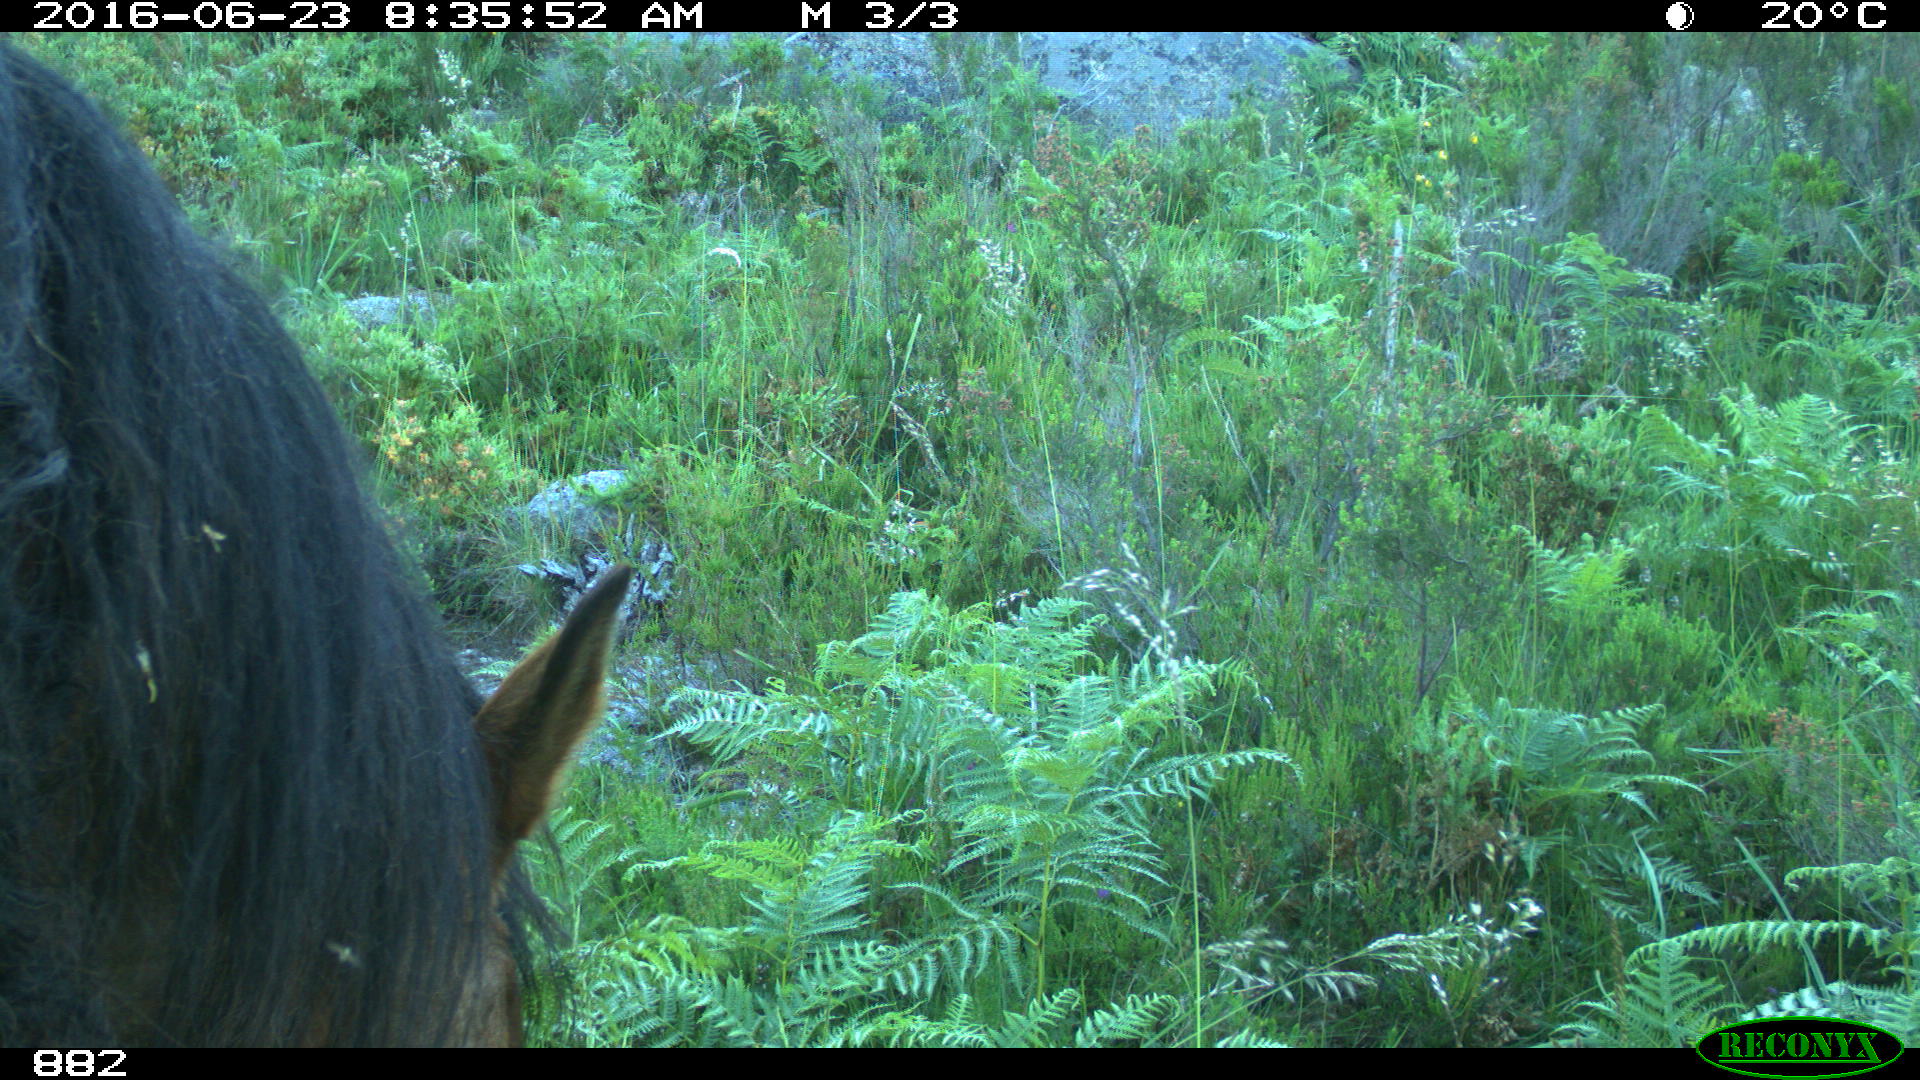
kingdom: Animalia
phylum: Chordata
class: Mammalia
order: Perissodactyla
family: Equidae
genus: Equus
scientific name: Equus caballus
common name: Horse
